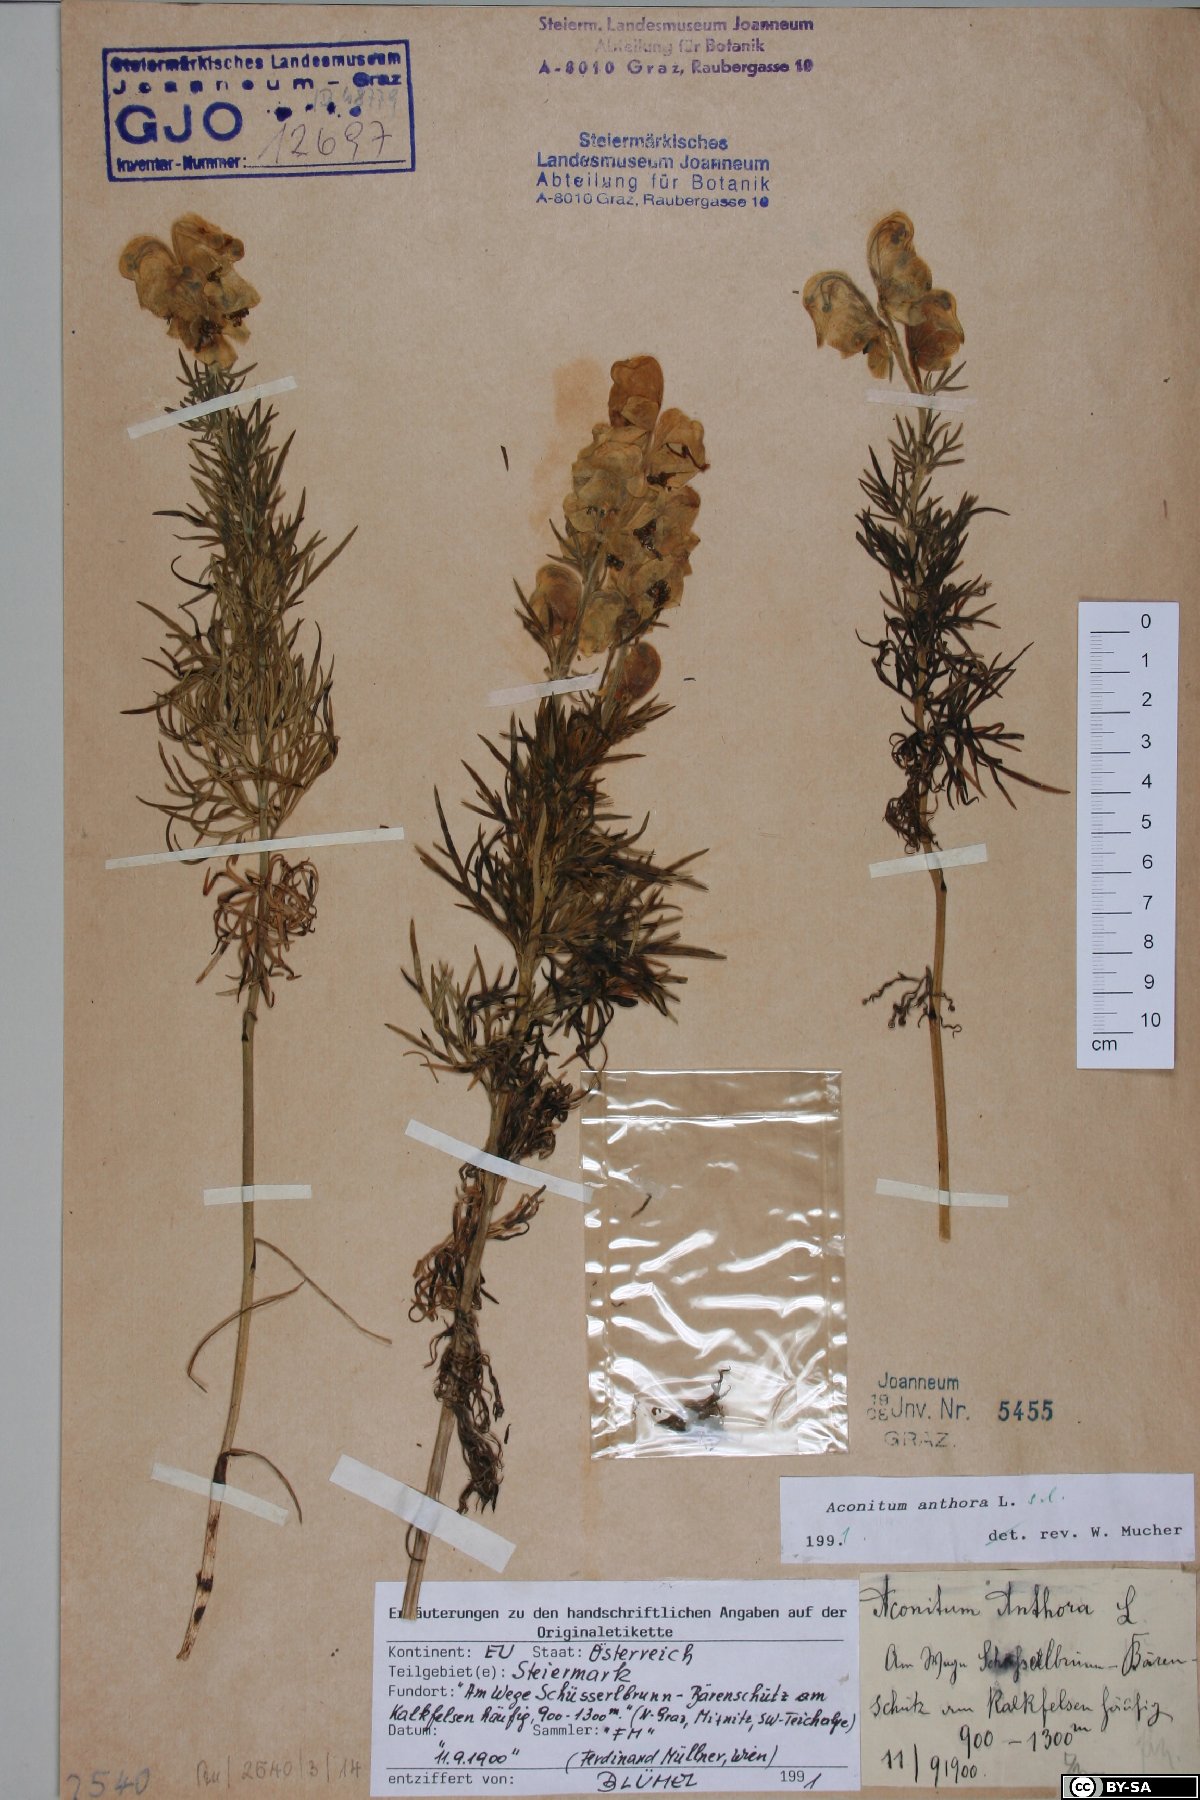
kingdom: Plantae
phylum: Tracheophyta
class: Magnoliopsida
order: Ranunculales
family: Ranunculaceae
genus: Aconitum
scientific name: Aconitum anthora
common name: Yellow monkshood
